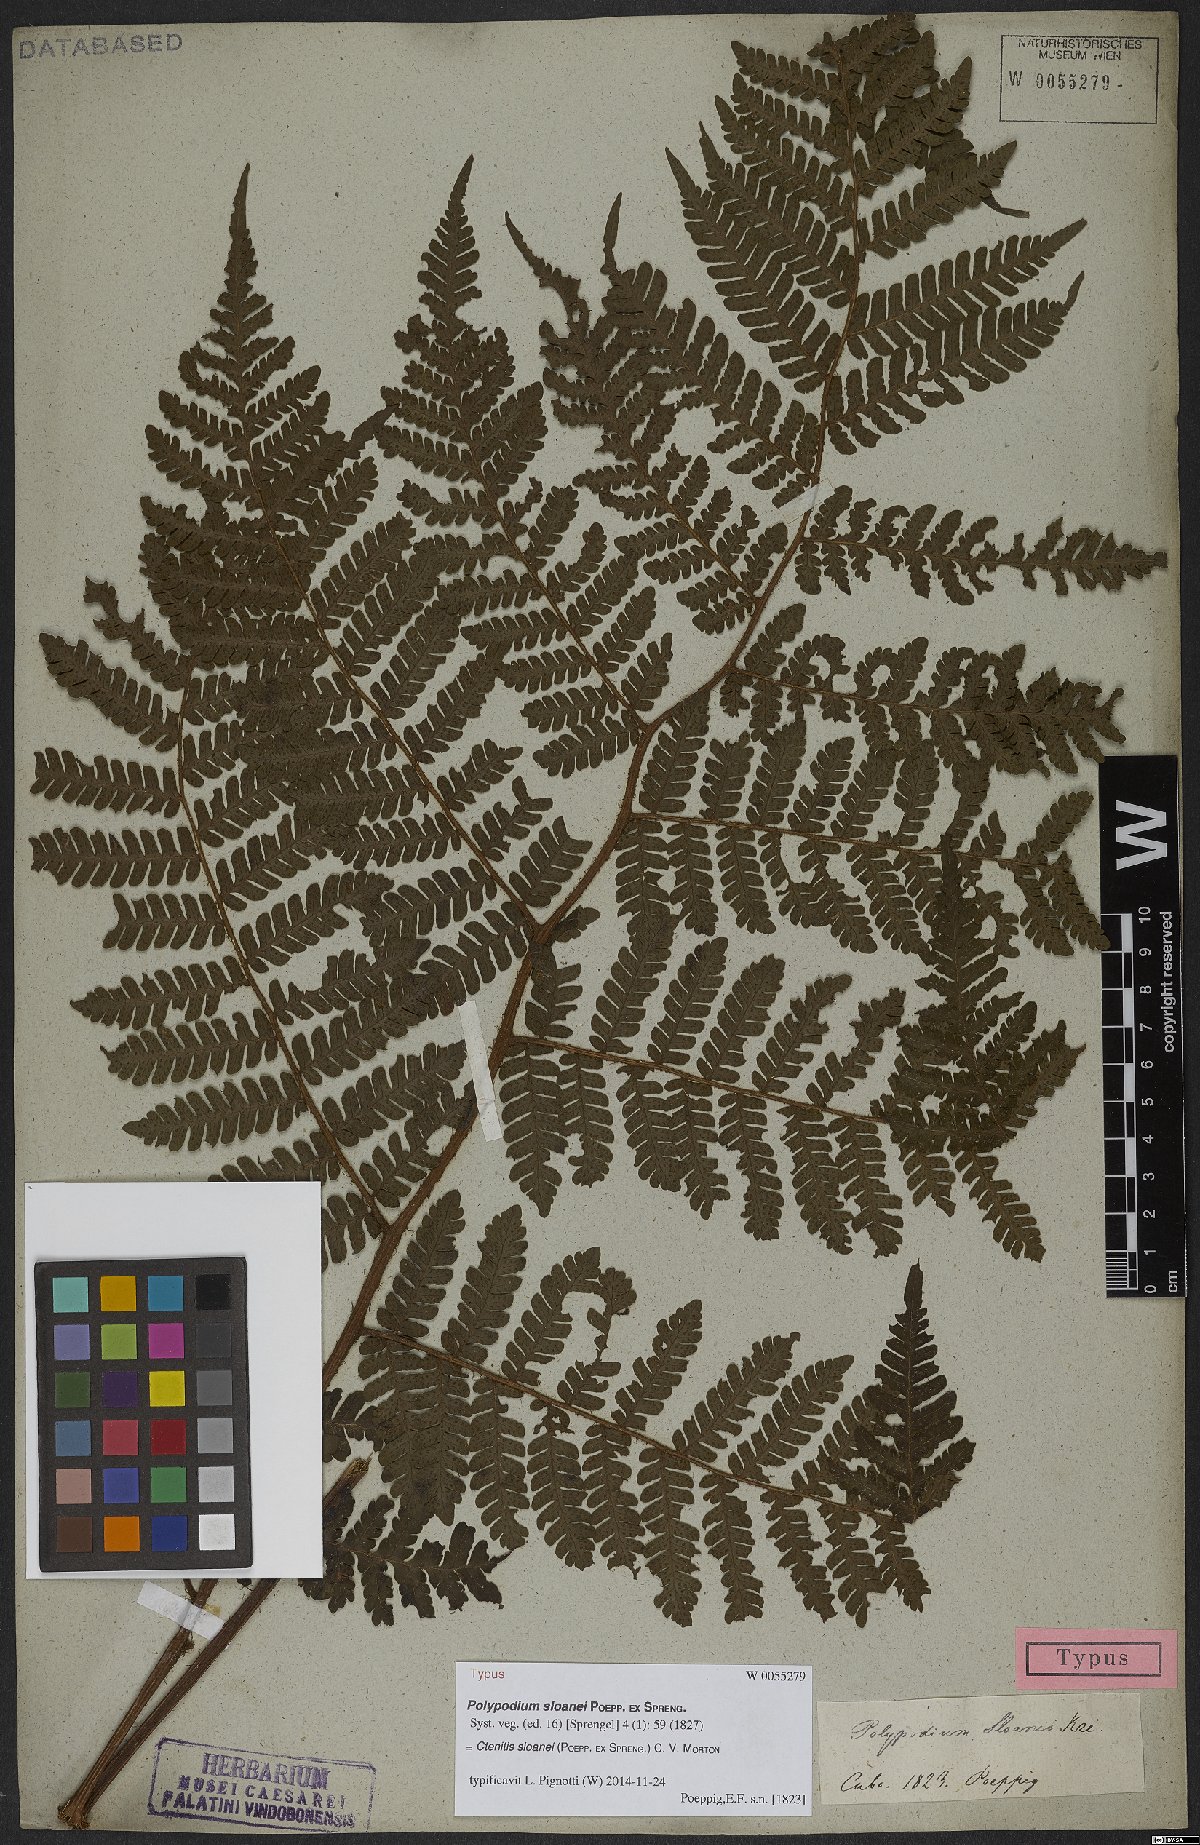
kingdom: Plantae
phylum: Tracheophyta
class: Polypodiopsida
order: Polypodiales
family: Dryopteridaceae
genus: Ctenitis
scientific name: Ctenitis sloanei
